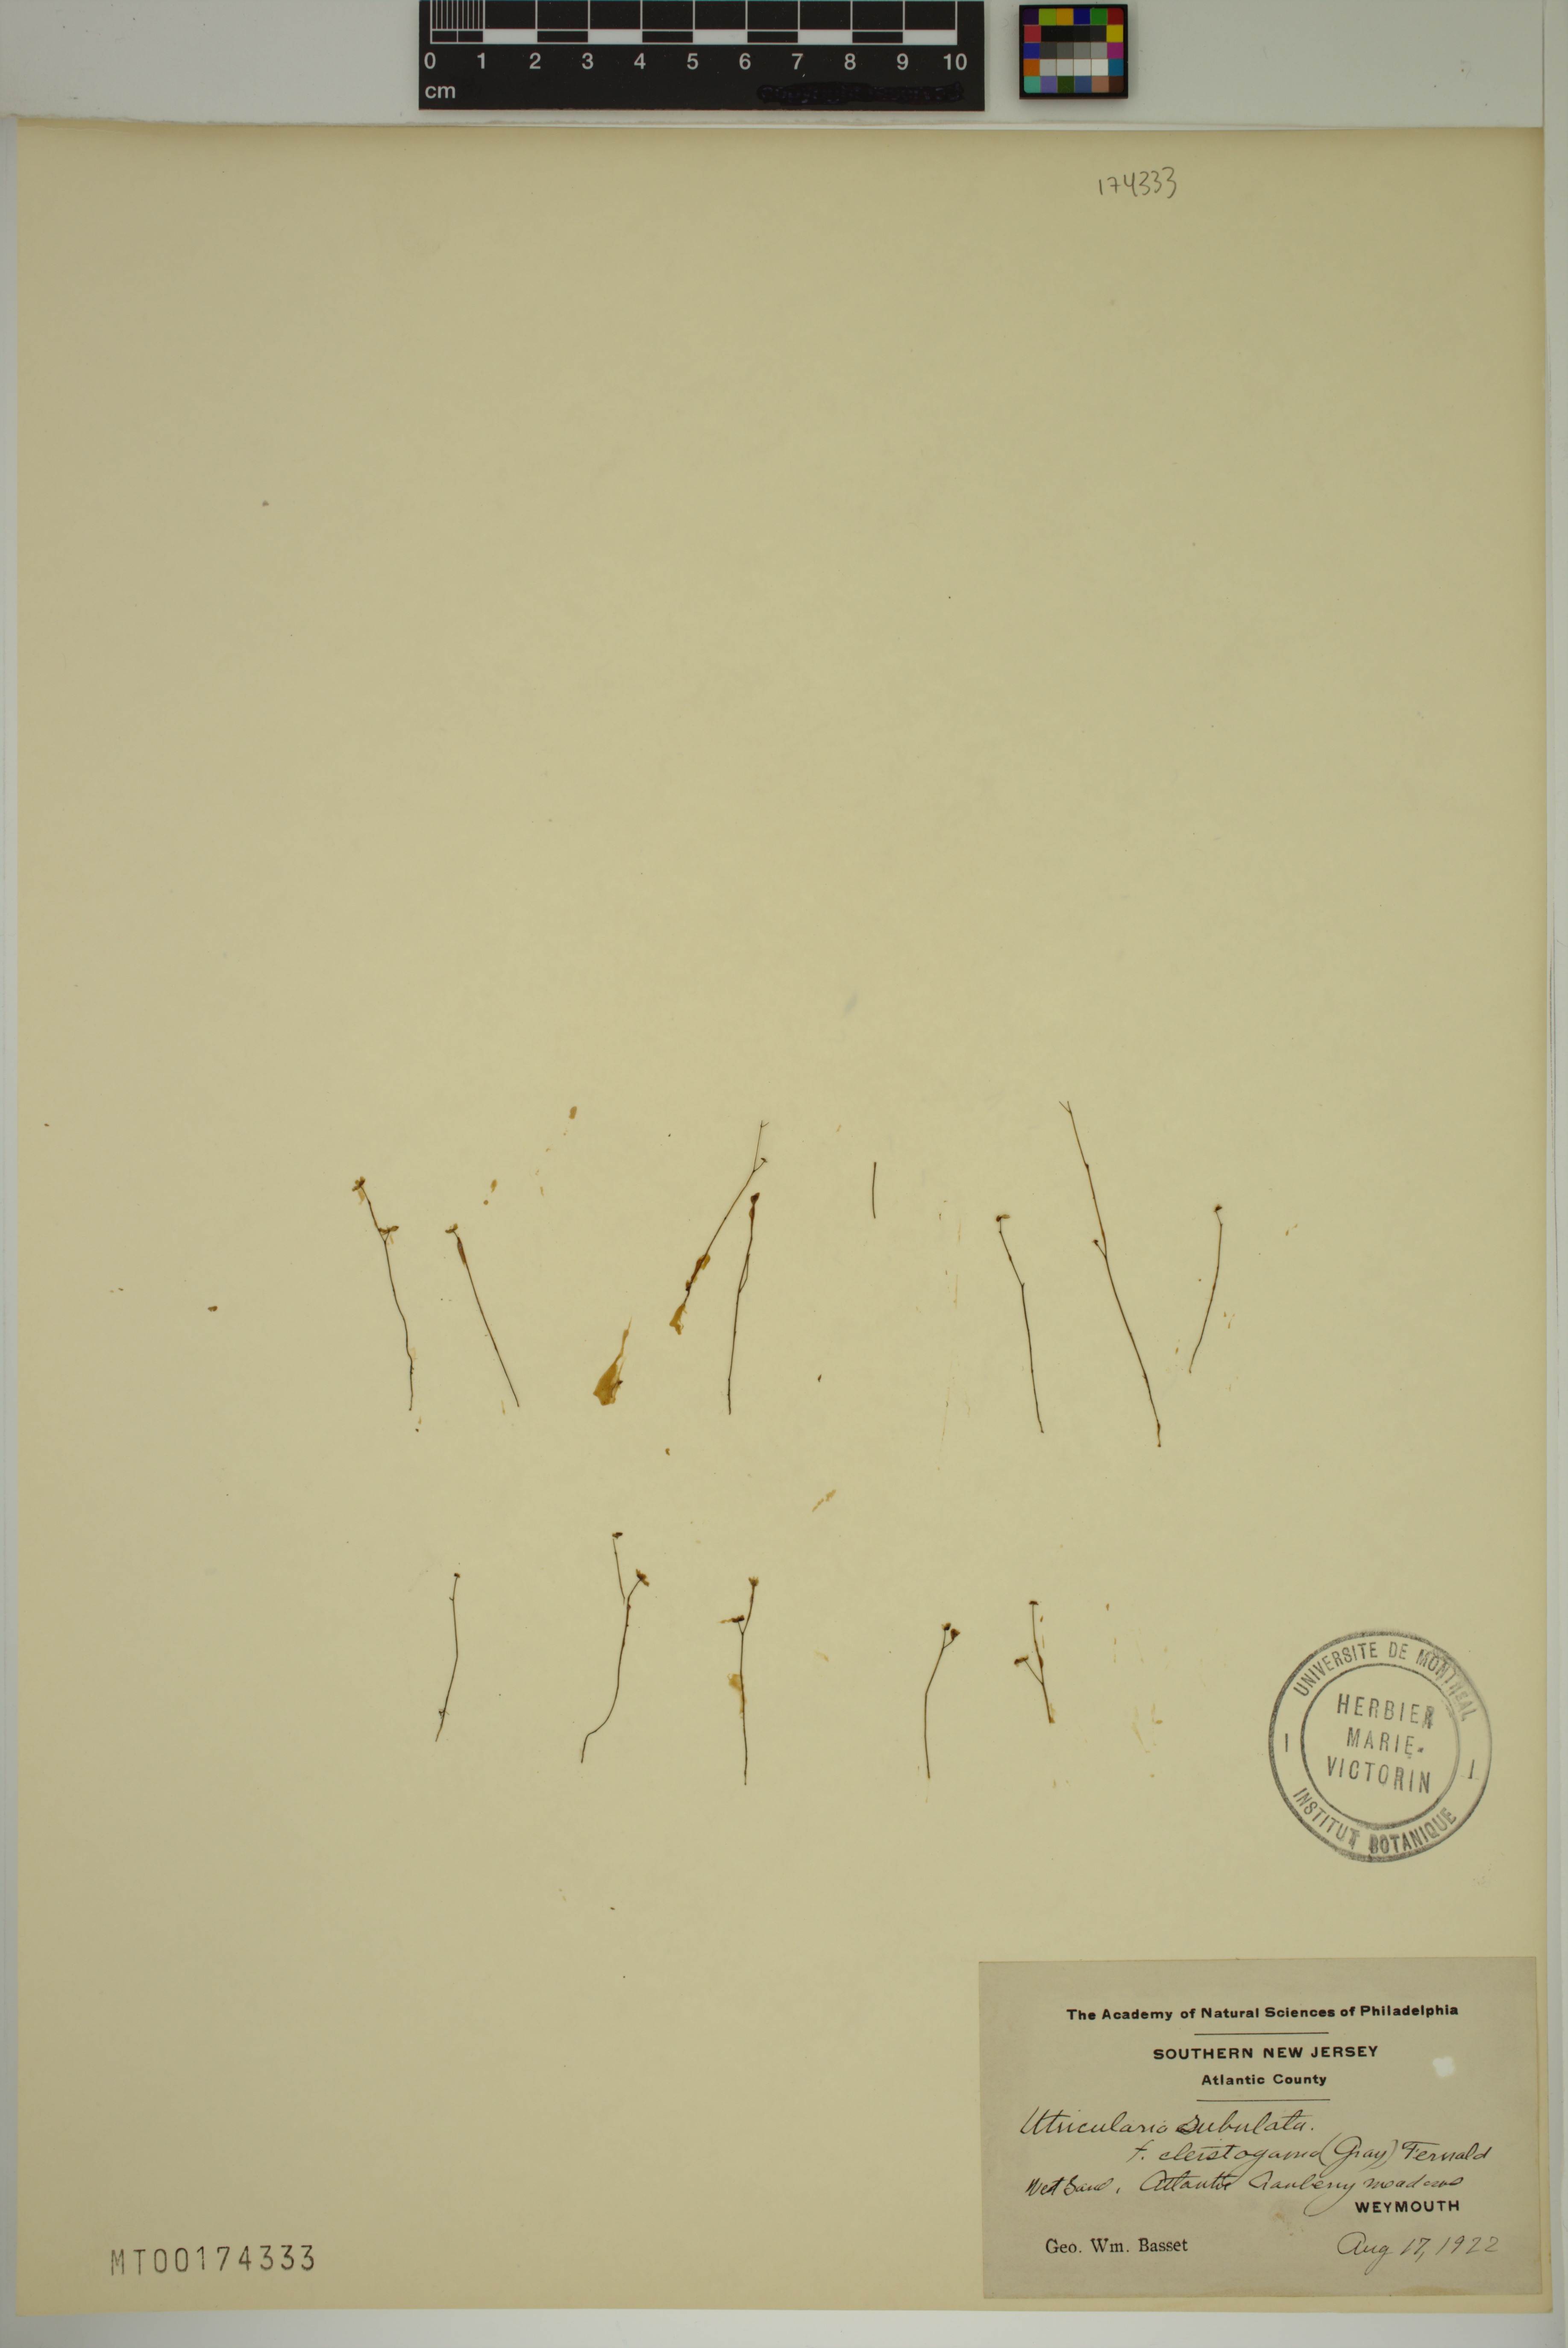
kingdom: Plantae
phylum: Tracheophyta
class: Magnoliopsida
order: Lamiales
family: Lentibulariaceae
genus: Utricularia
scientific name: Utricularia subulata
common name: Tiny bladderwort
